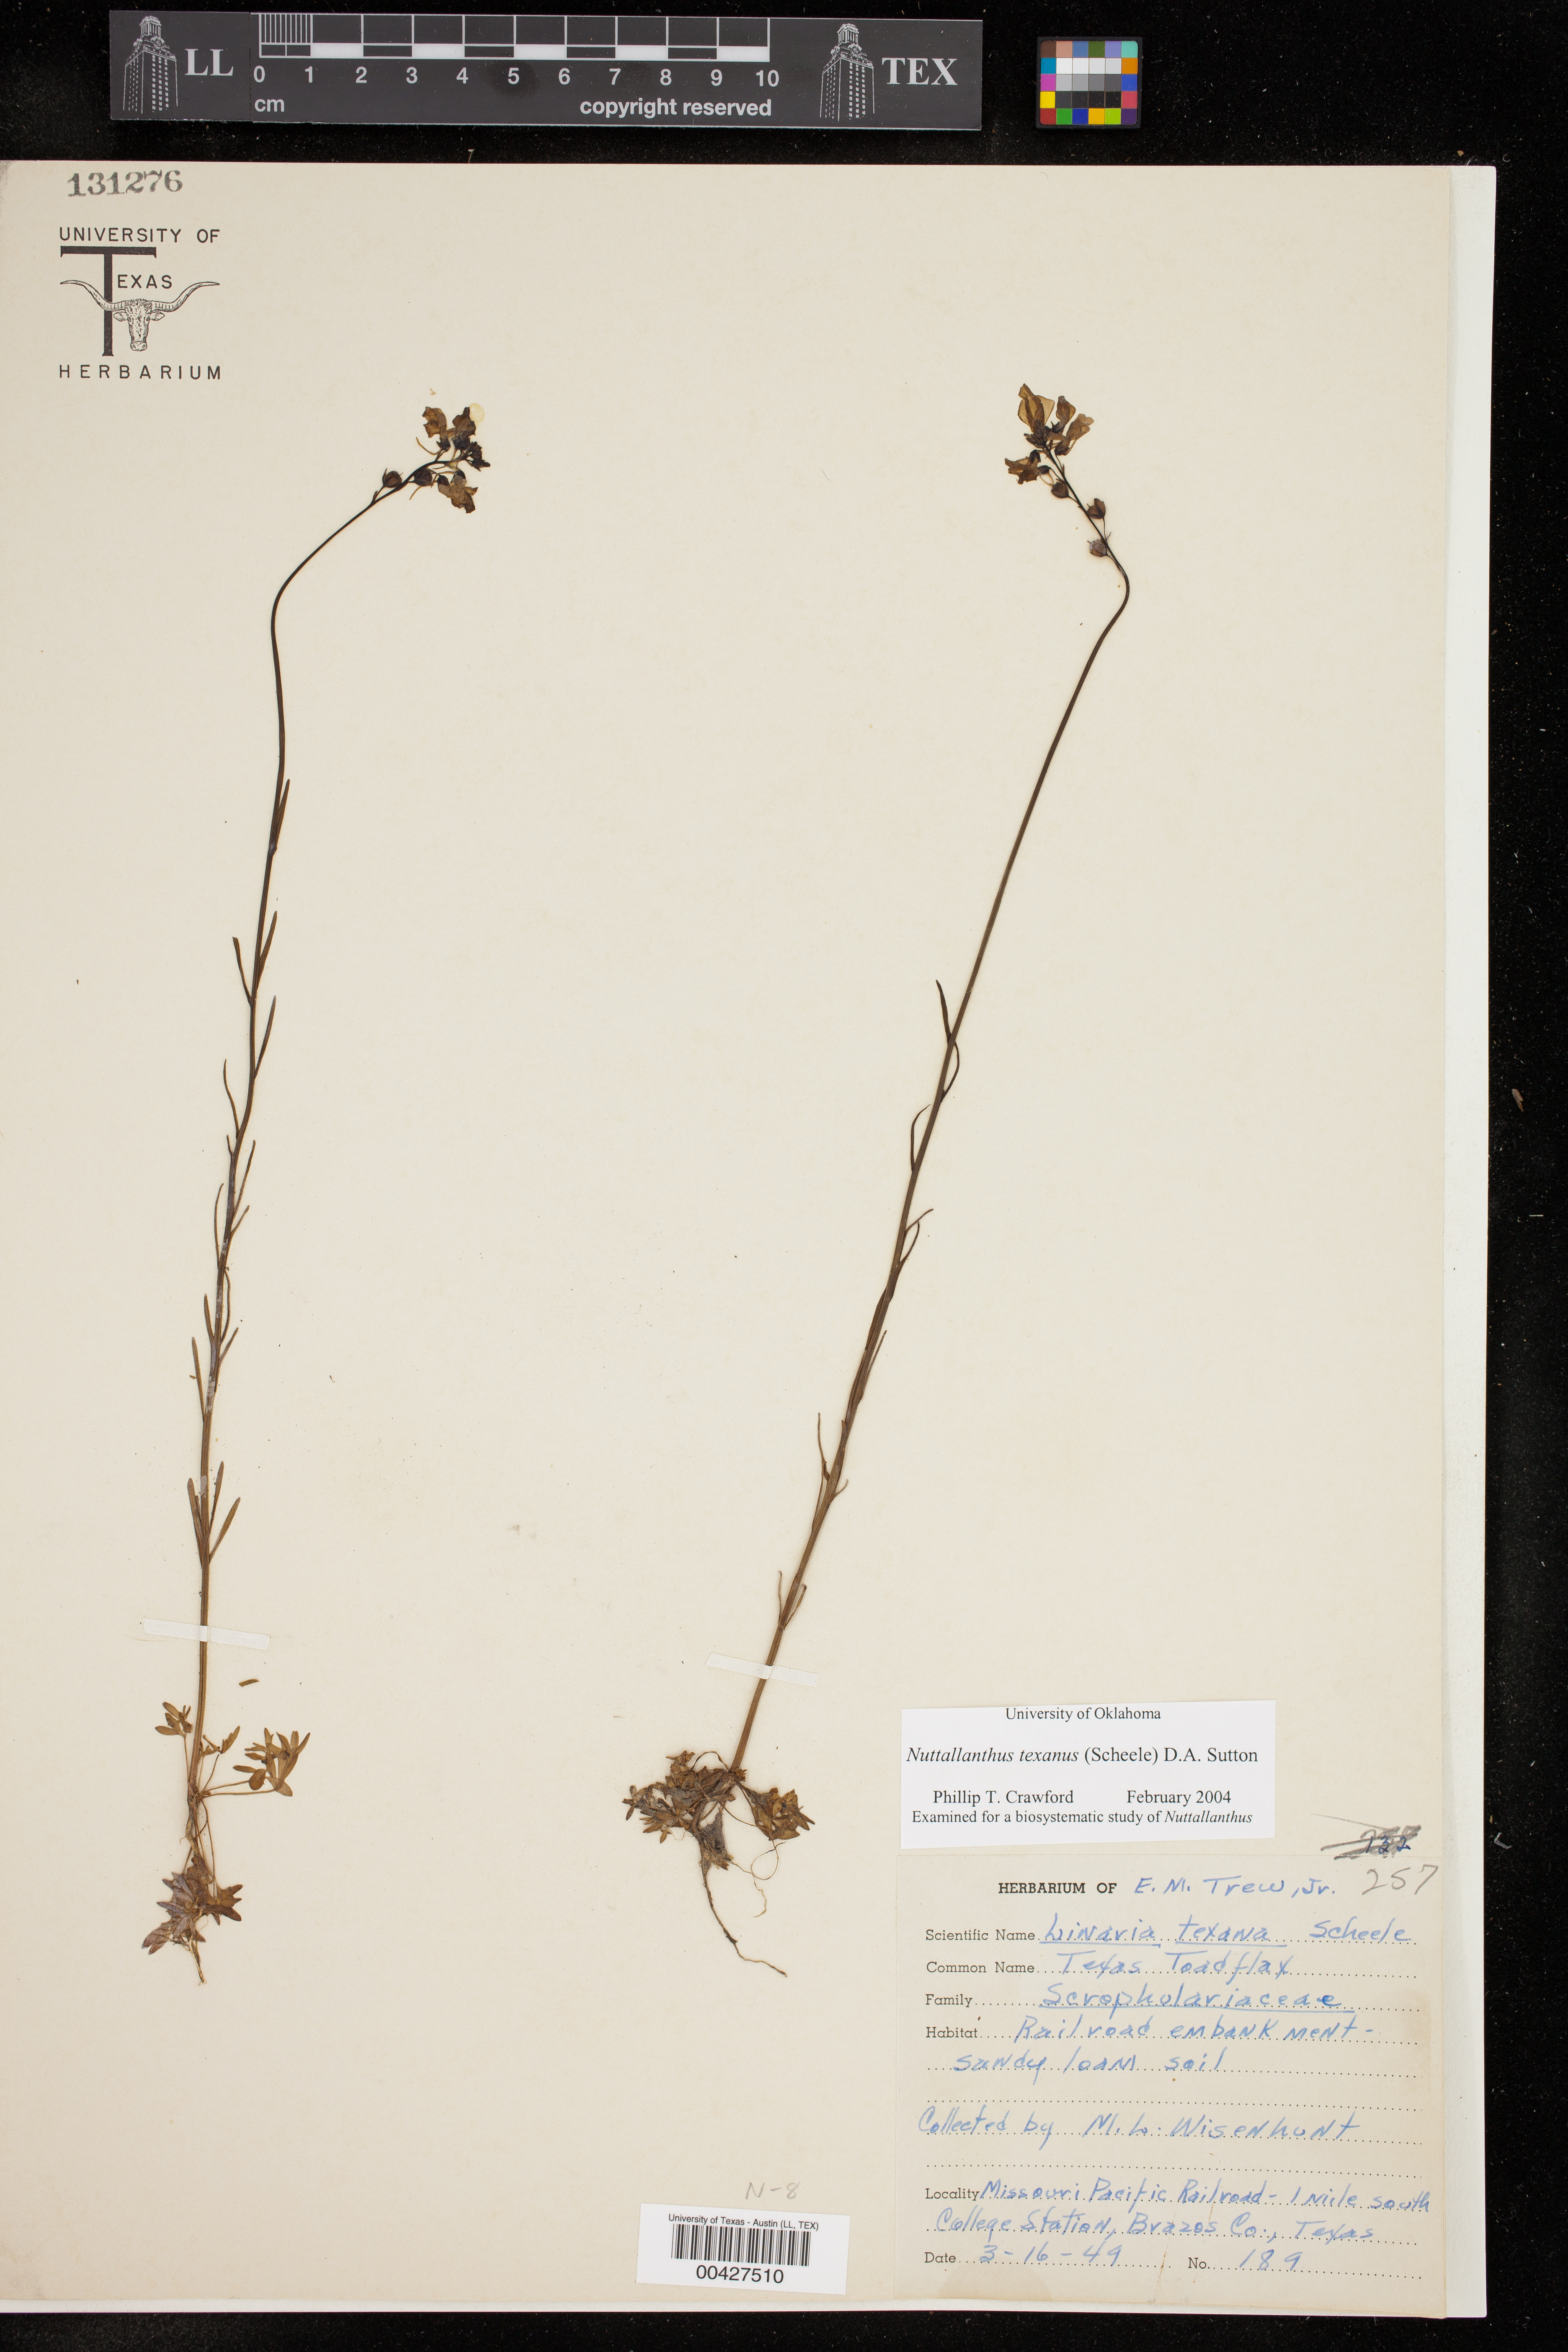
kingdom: Plantae
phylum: Tracheophyta
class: Magnoliopsida
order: Lamiales
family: Plantaginaceae
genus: Nuttallanthus
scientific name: Nuttallanthus texanus
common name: Texas toadflax
